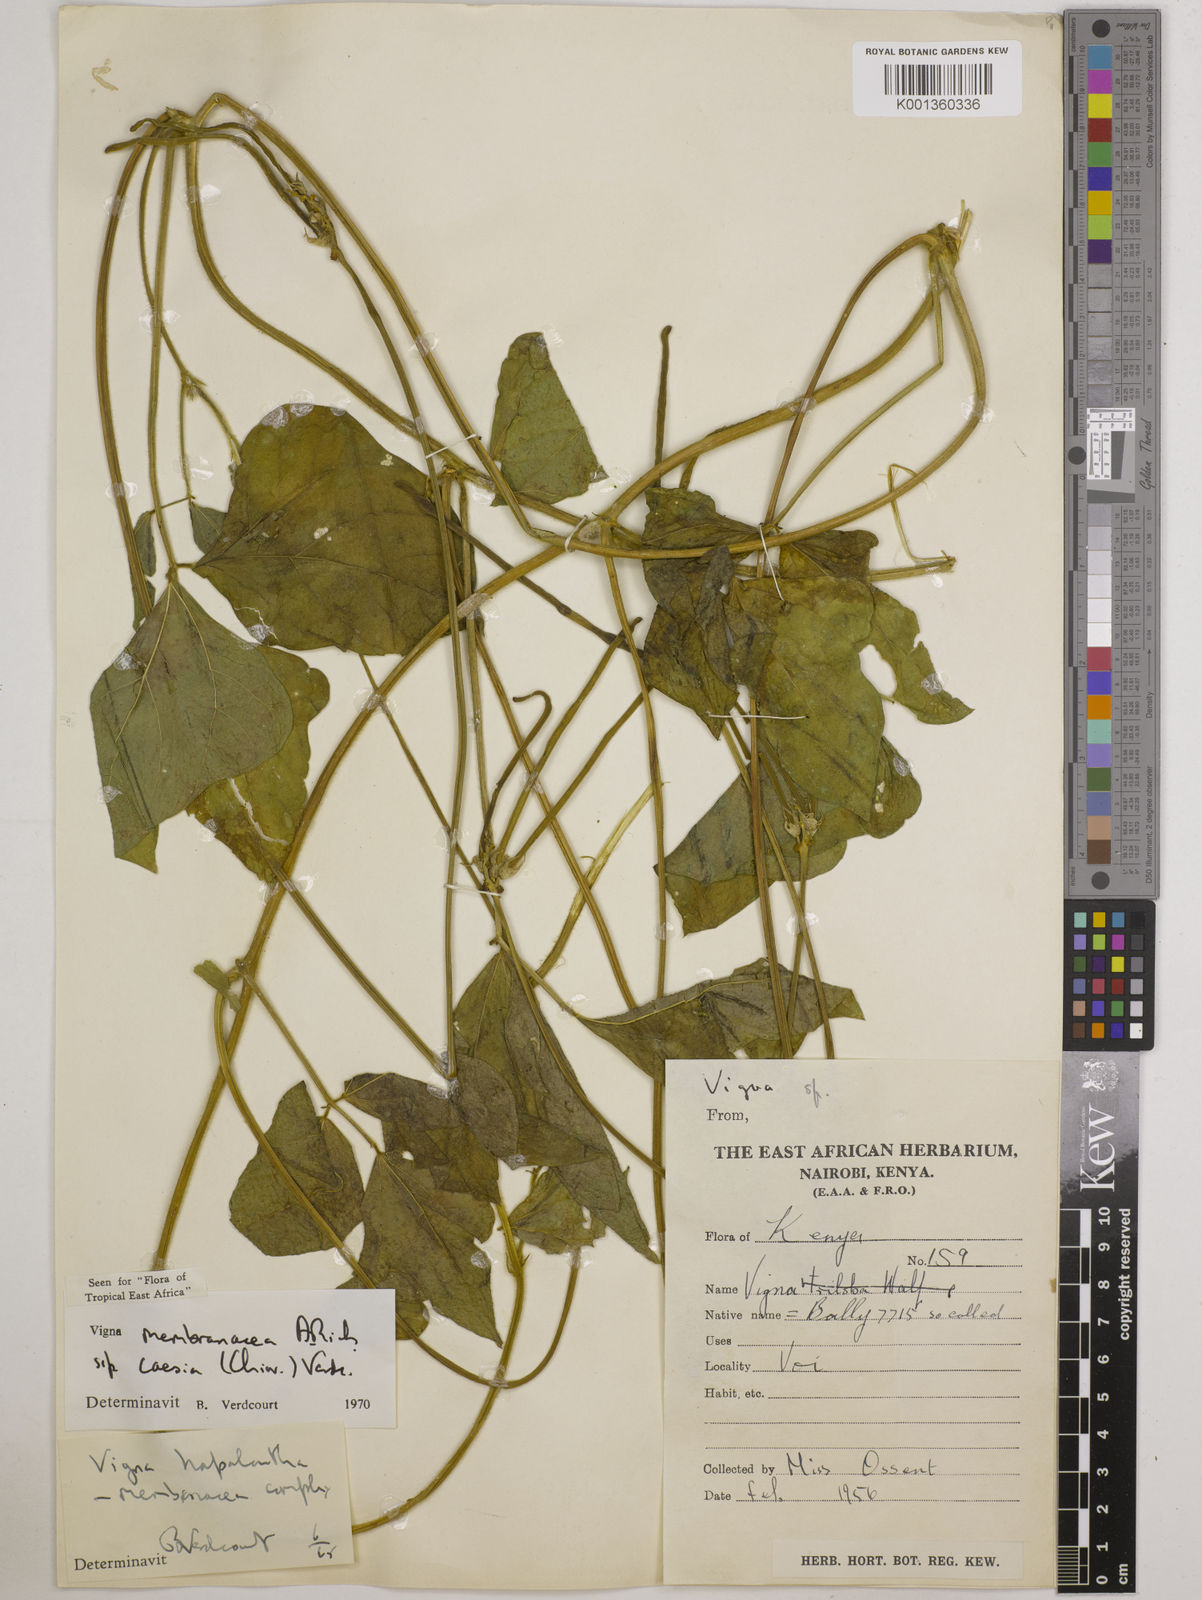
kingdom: Plantae
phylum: Tracheophyta
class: Magnoliopsida
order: Fabales
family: Fabaceae
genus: Vigna
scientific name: Vigna
